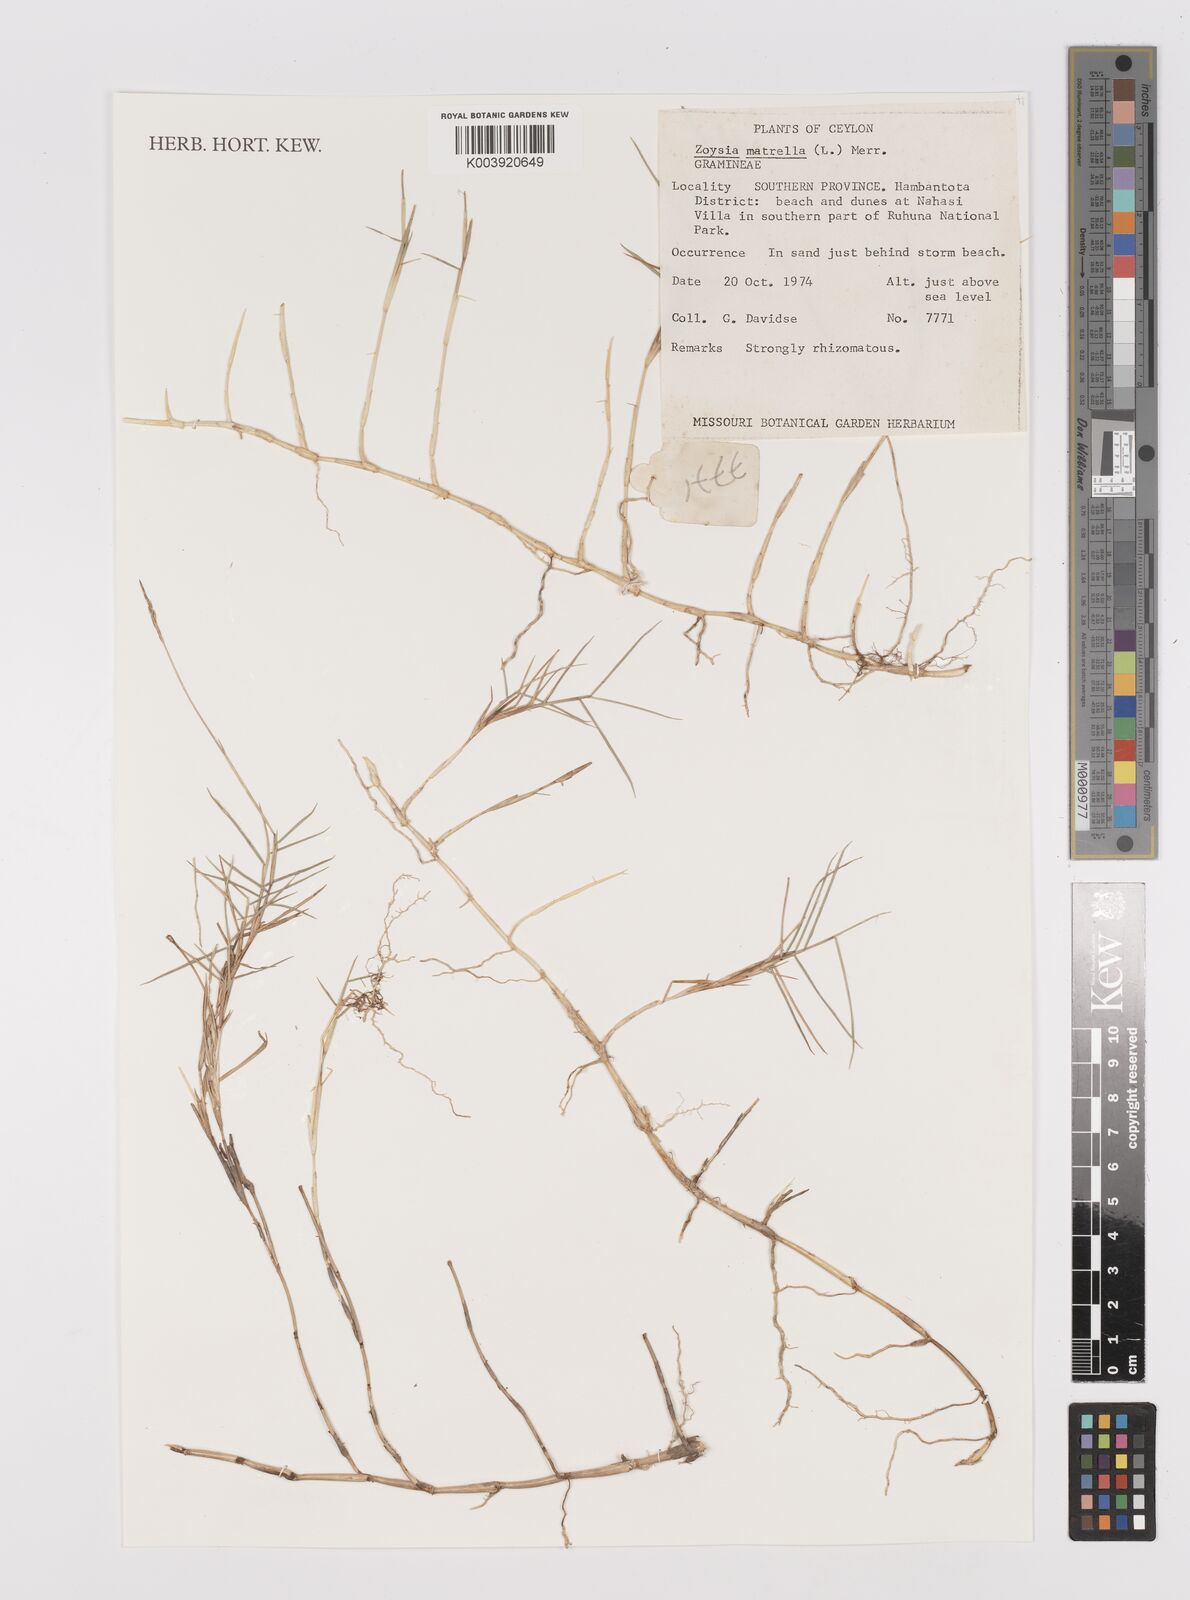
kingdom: Plantae
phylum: Tracheophyta
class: Liliopsida
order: Poales
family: Poaceae
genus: Zoysia
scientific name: Zoysia matrella
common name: Manila grass
